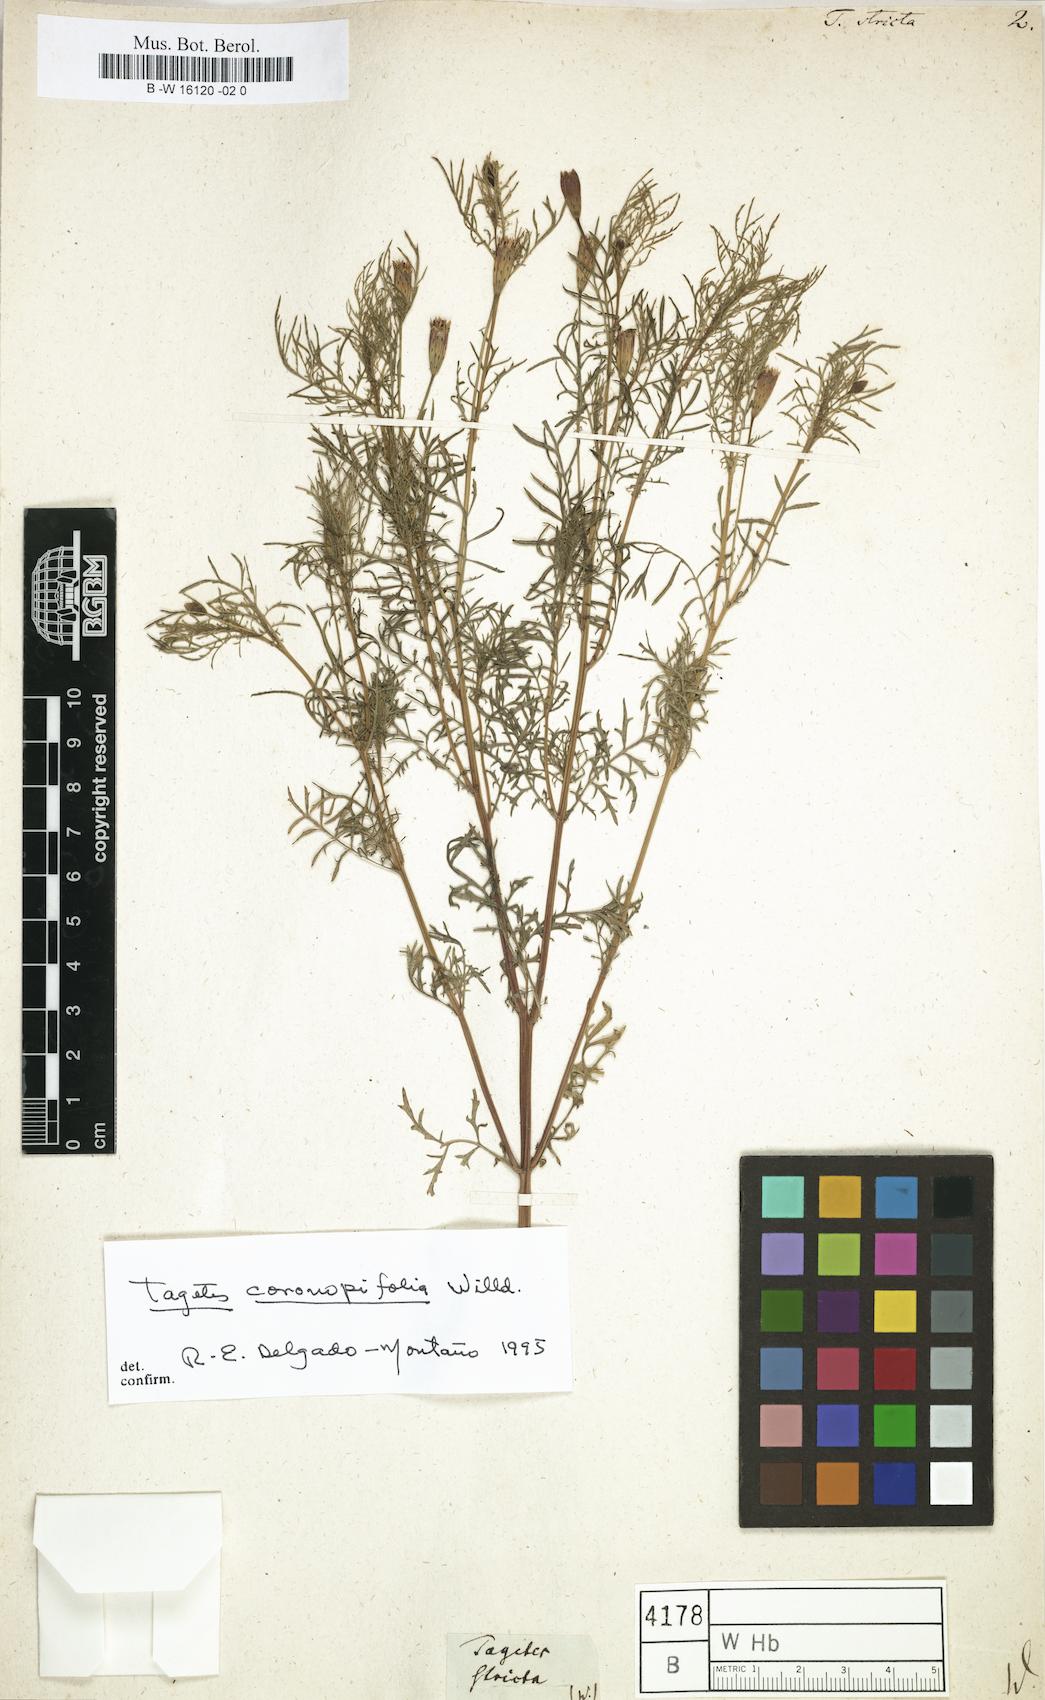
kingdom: Plantae
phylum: Tracheophyta
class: Magnoliopsida
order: Asterales
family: Asteraceae
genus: Tagetes
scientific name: Tagetes
